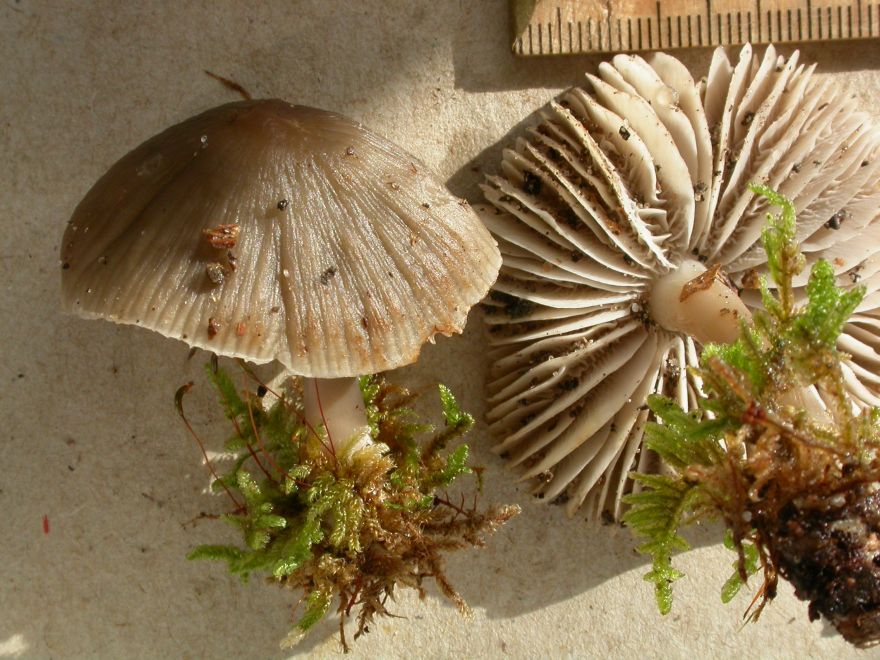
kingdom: Fungi
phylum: Basidiomycota
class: Agaricomycetes
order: Agaricales
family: Mycenaceae
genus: Mycena
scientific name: Mycena polygramma
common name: mangestribet huesvamp
